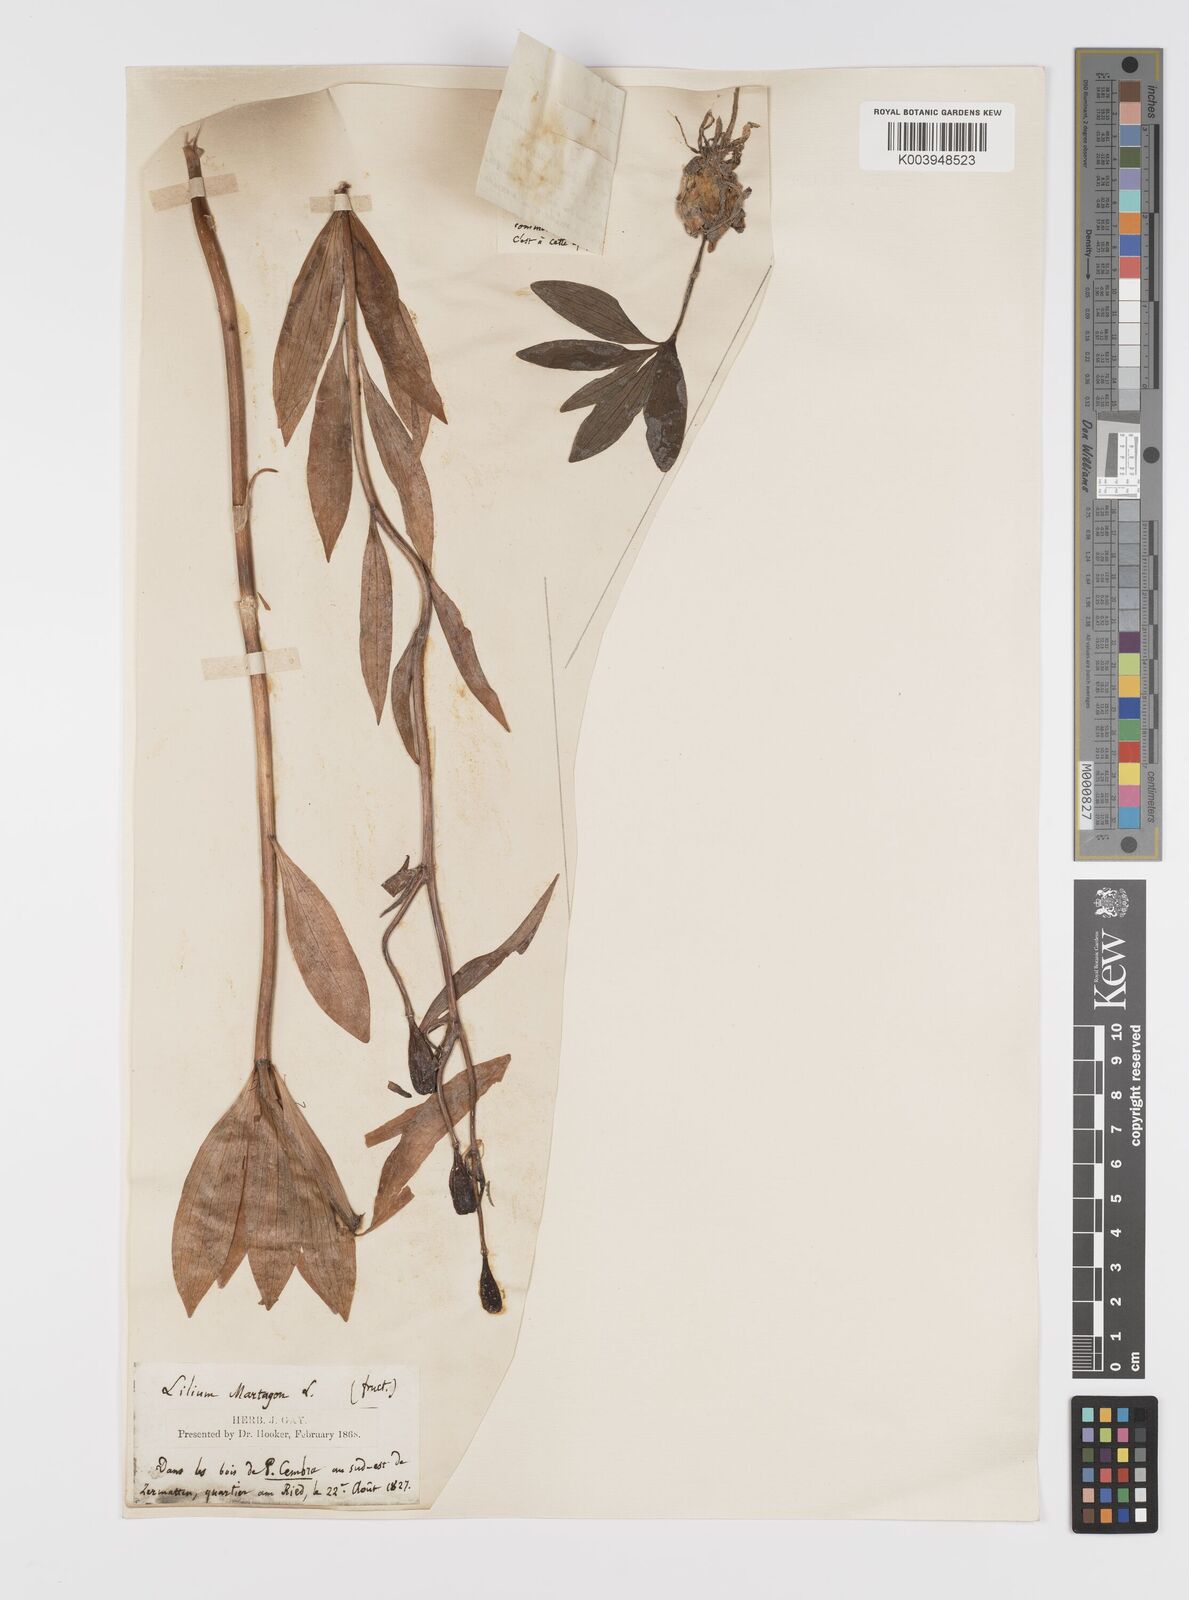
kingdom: Plantae
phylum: Tracheophyta
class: Liliopsida
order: Liliales
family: Liliaceae
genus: Lilium
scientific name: Lilium martagon
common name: Martagon lily
